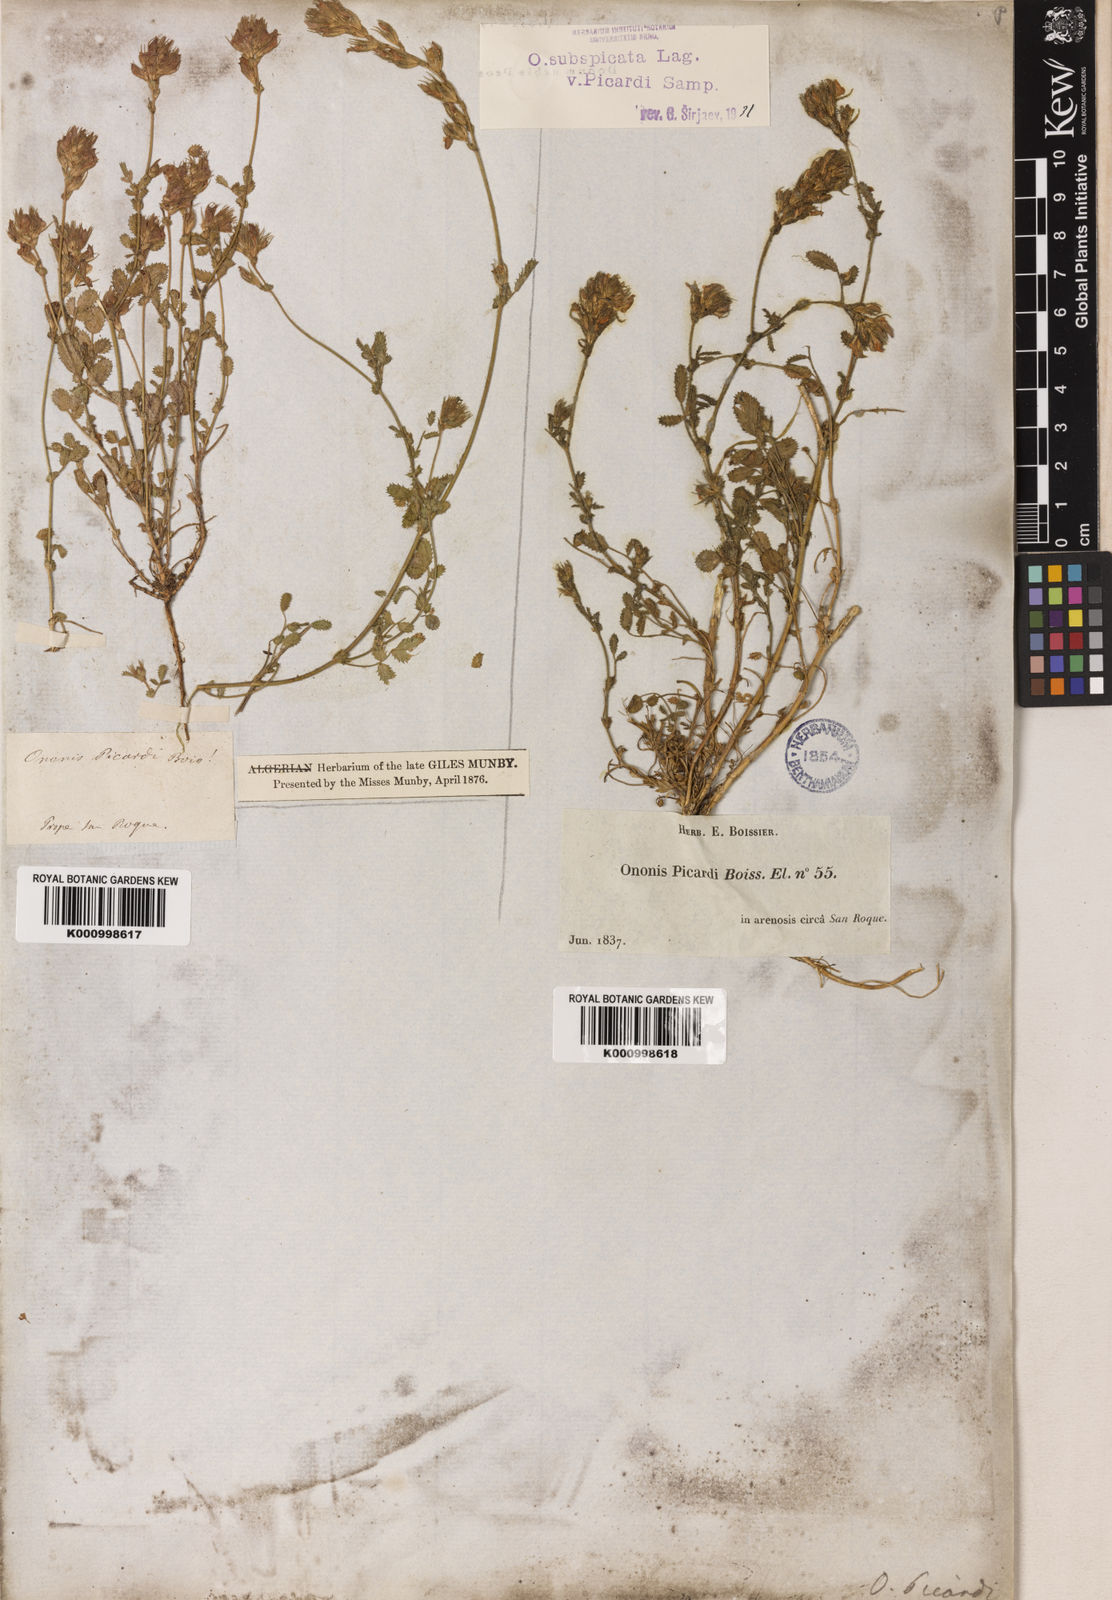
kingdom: Plantae
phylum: Tracheophyta
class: Magnoliopsida
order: Fabales
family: Fabaceae
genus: Ononis
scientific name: Ononis baetica
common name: Andalucian restharrow
